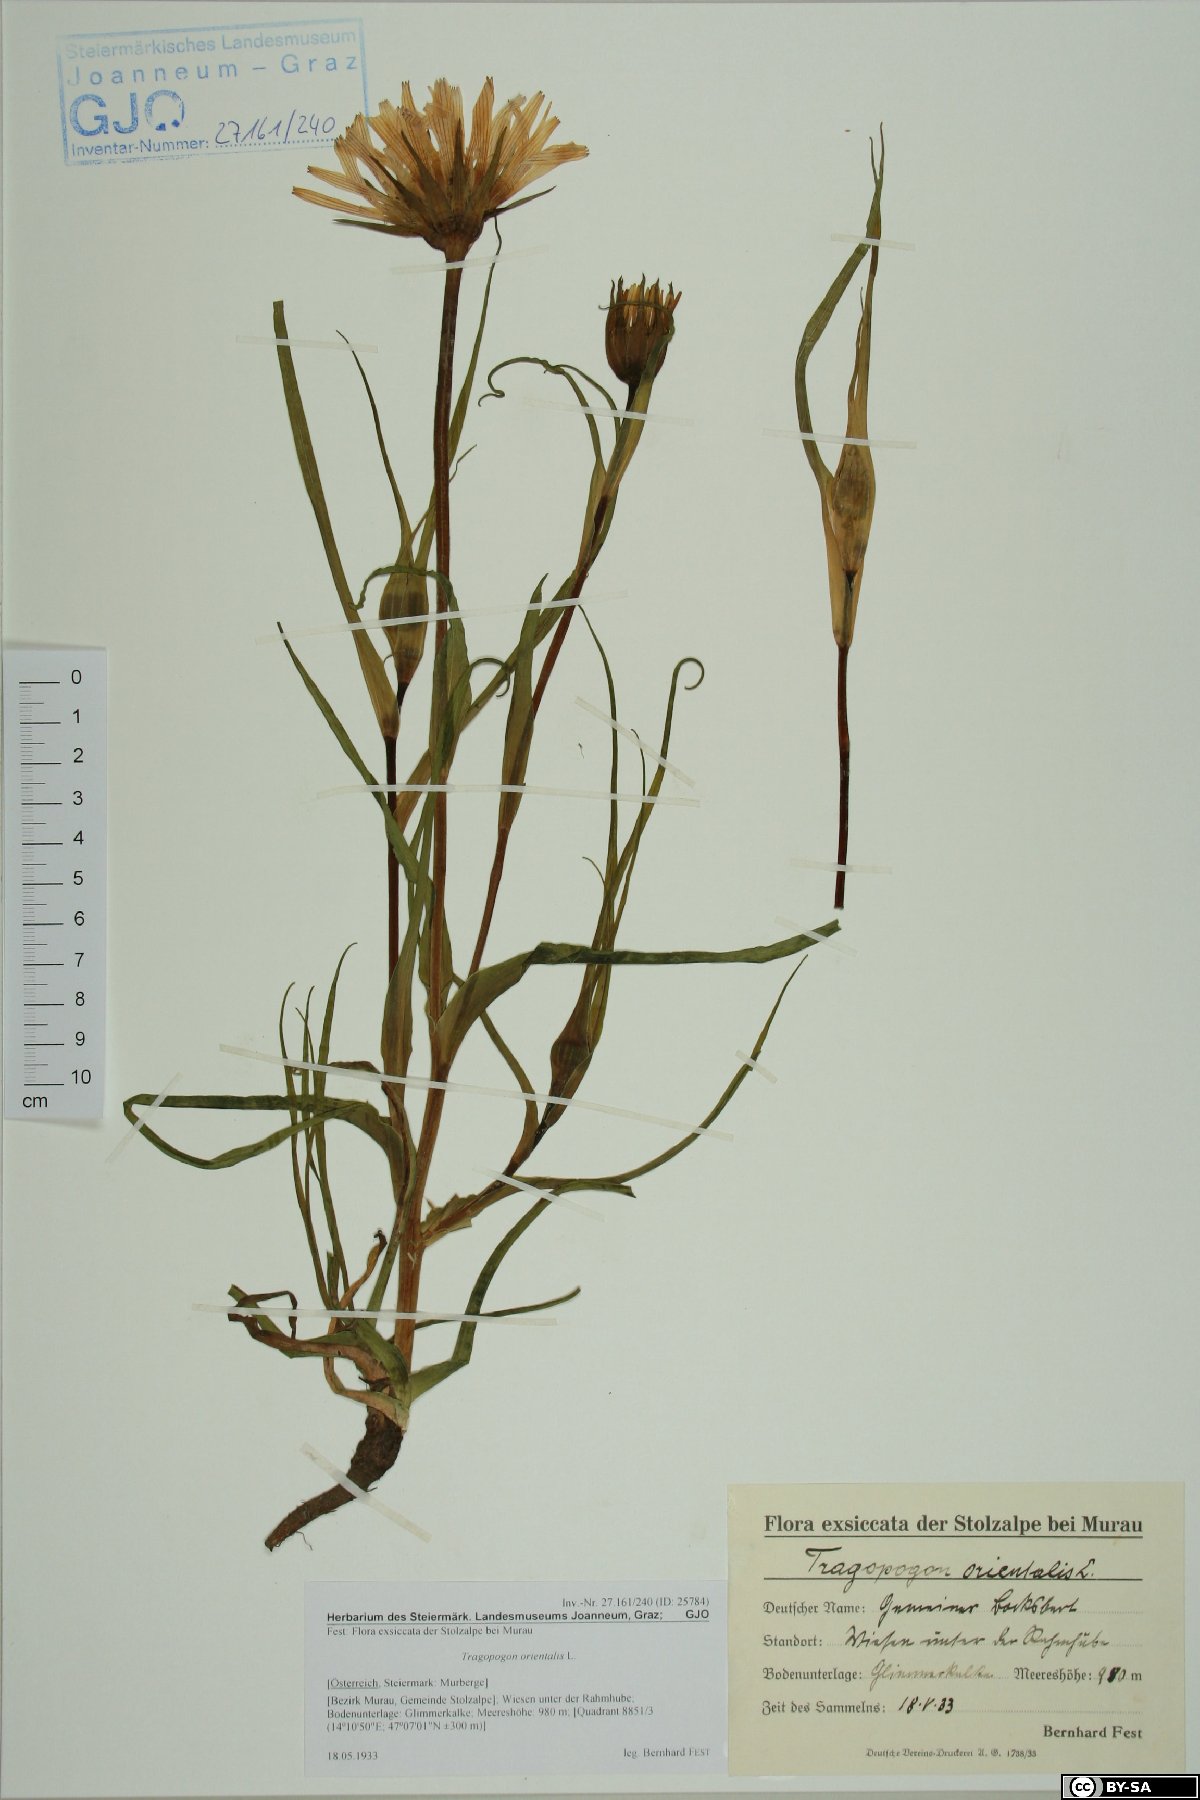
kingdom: Plantae
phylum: Tracheophyta
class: Magnoliopsida
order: Asterales
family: Asteraceae
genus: Tragopogon
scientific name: Tragopogon orientalis
